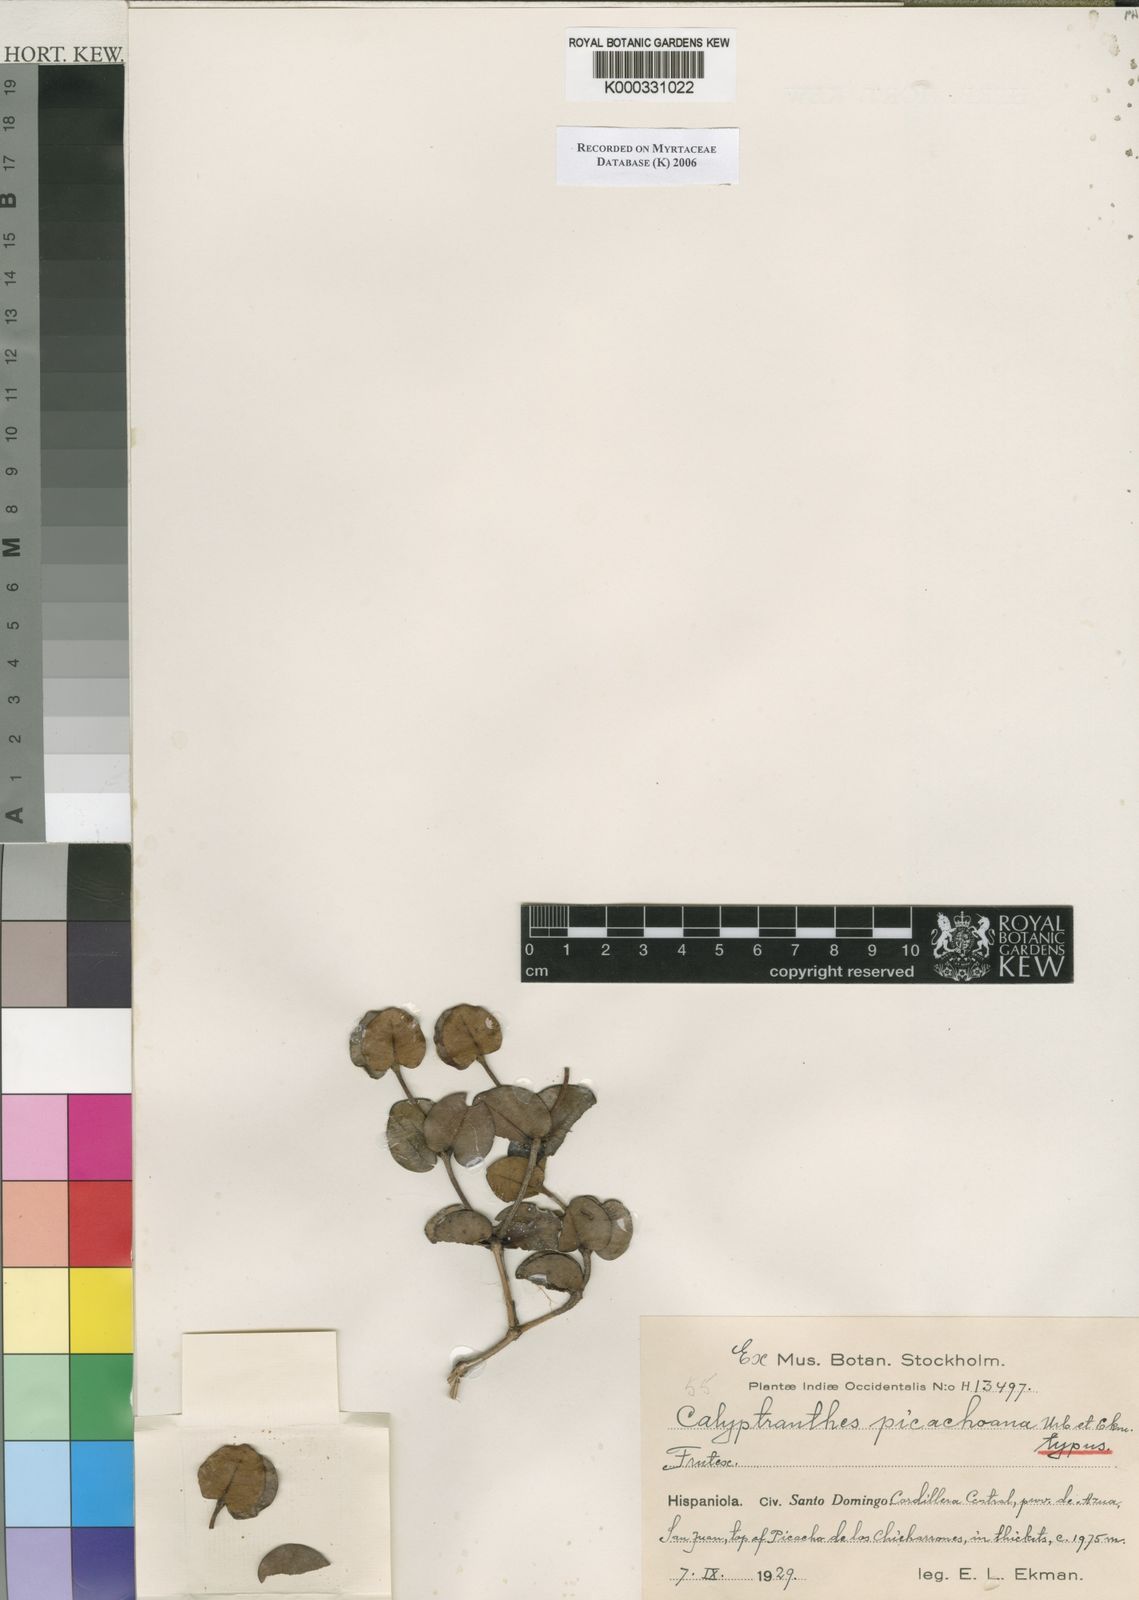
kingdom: Plantae
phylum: Tracheophyta
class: Magnoliopsida
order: Myrtales
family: Myrtaceae
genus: Myrcia
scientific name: Myrcia picachoana
